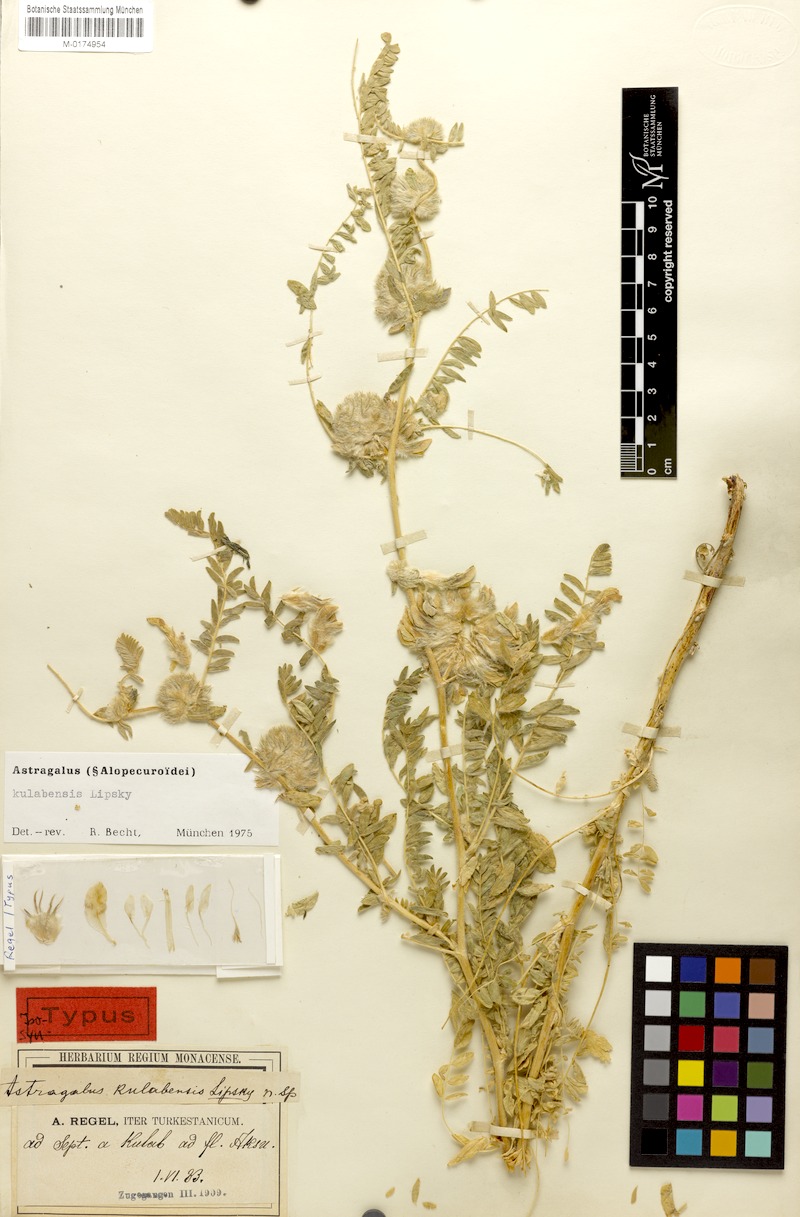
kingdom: Plantae
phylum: Tracheophyta
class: Magnoliopsida
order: Fabales
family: Fabaceae
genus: Astragalus
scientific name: Astragalus kulabensis
